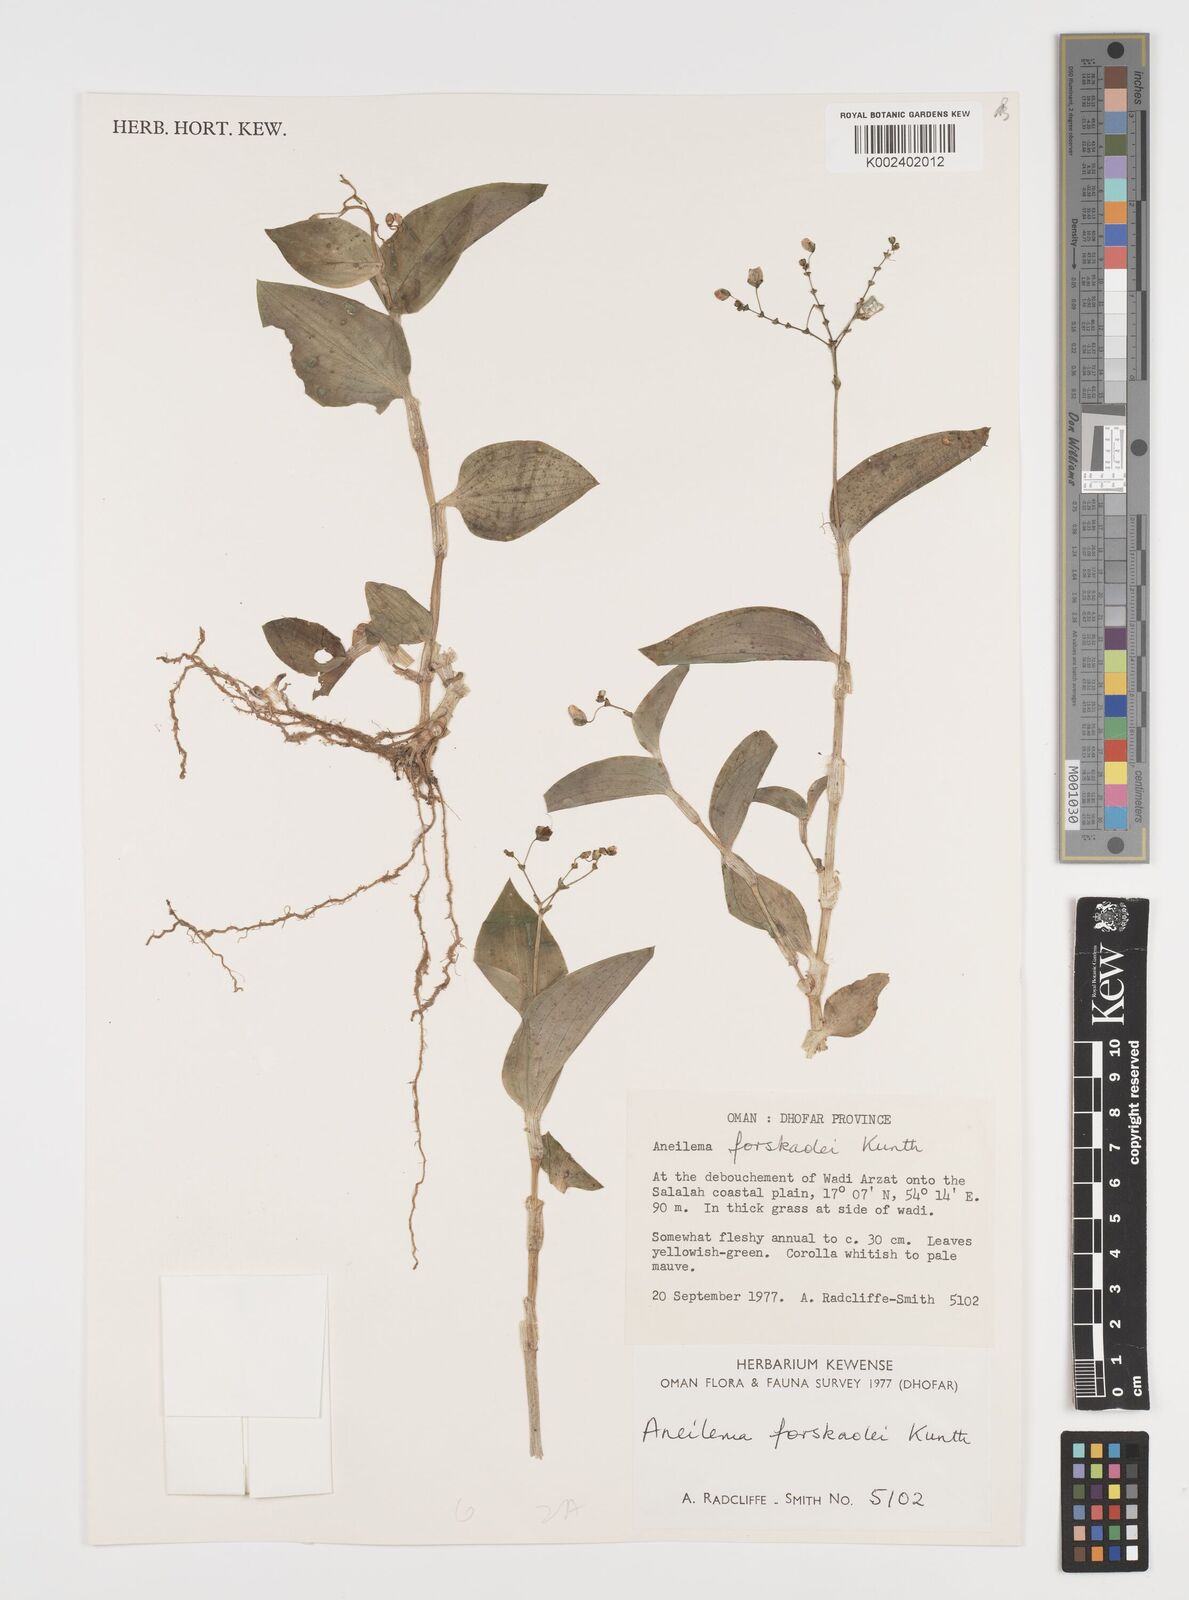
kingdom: Plantae
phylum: Tracheophyta
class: Liliopsida
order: Commelinales
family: Commelinaceae
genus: Aneilema
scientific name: Aneilema forskalii
